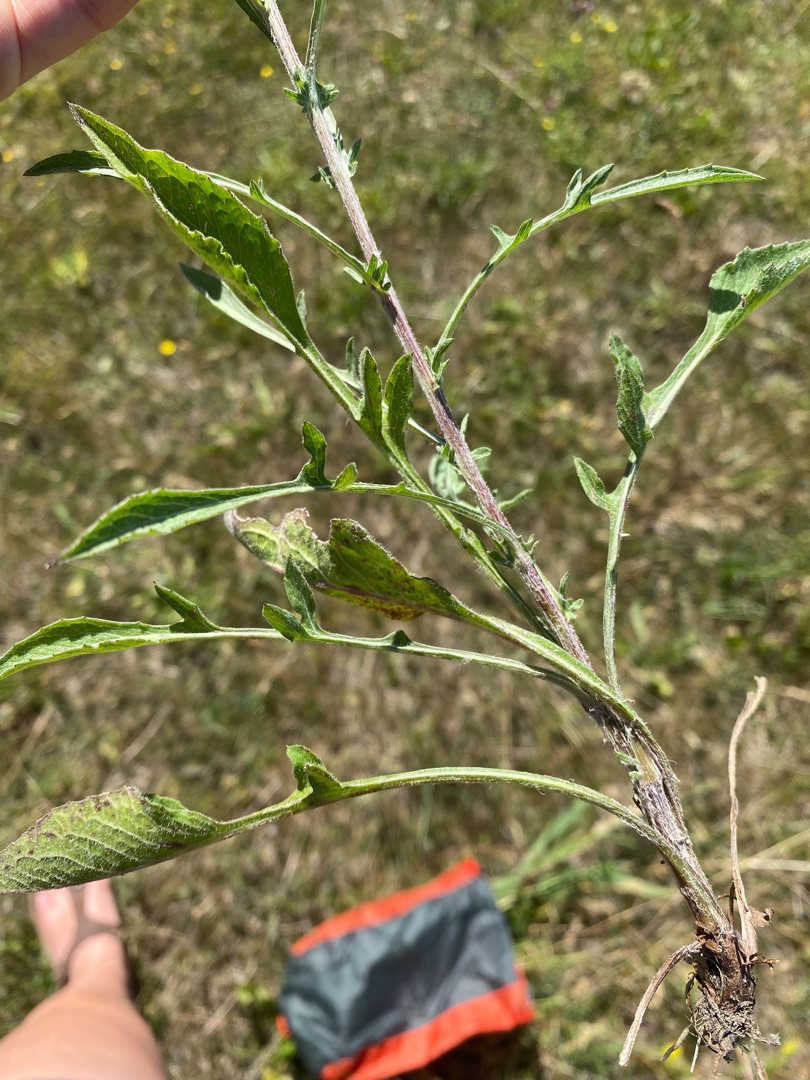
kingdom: Plantae
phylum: Tracheophyta
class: Magnoliopsida
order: Asterales
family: Asteraceae
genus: Centaurea
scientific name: Centaurea jacea
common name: Almindelig knopurt
